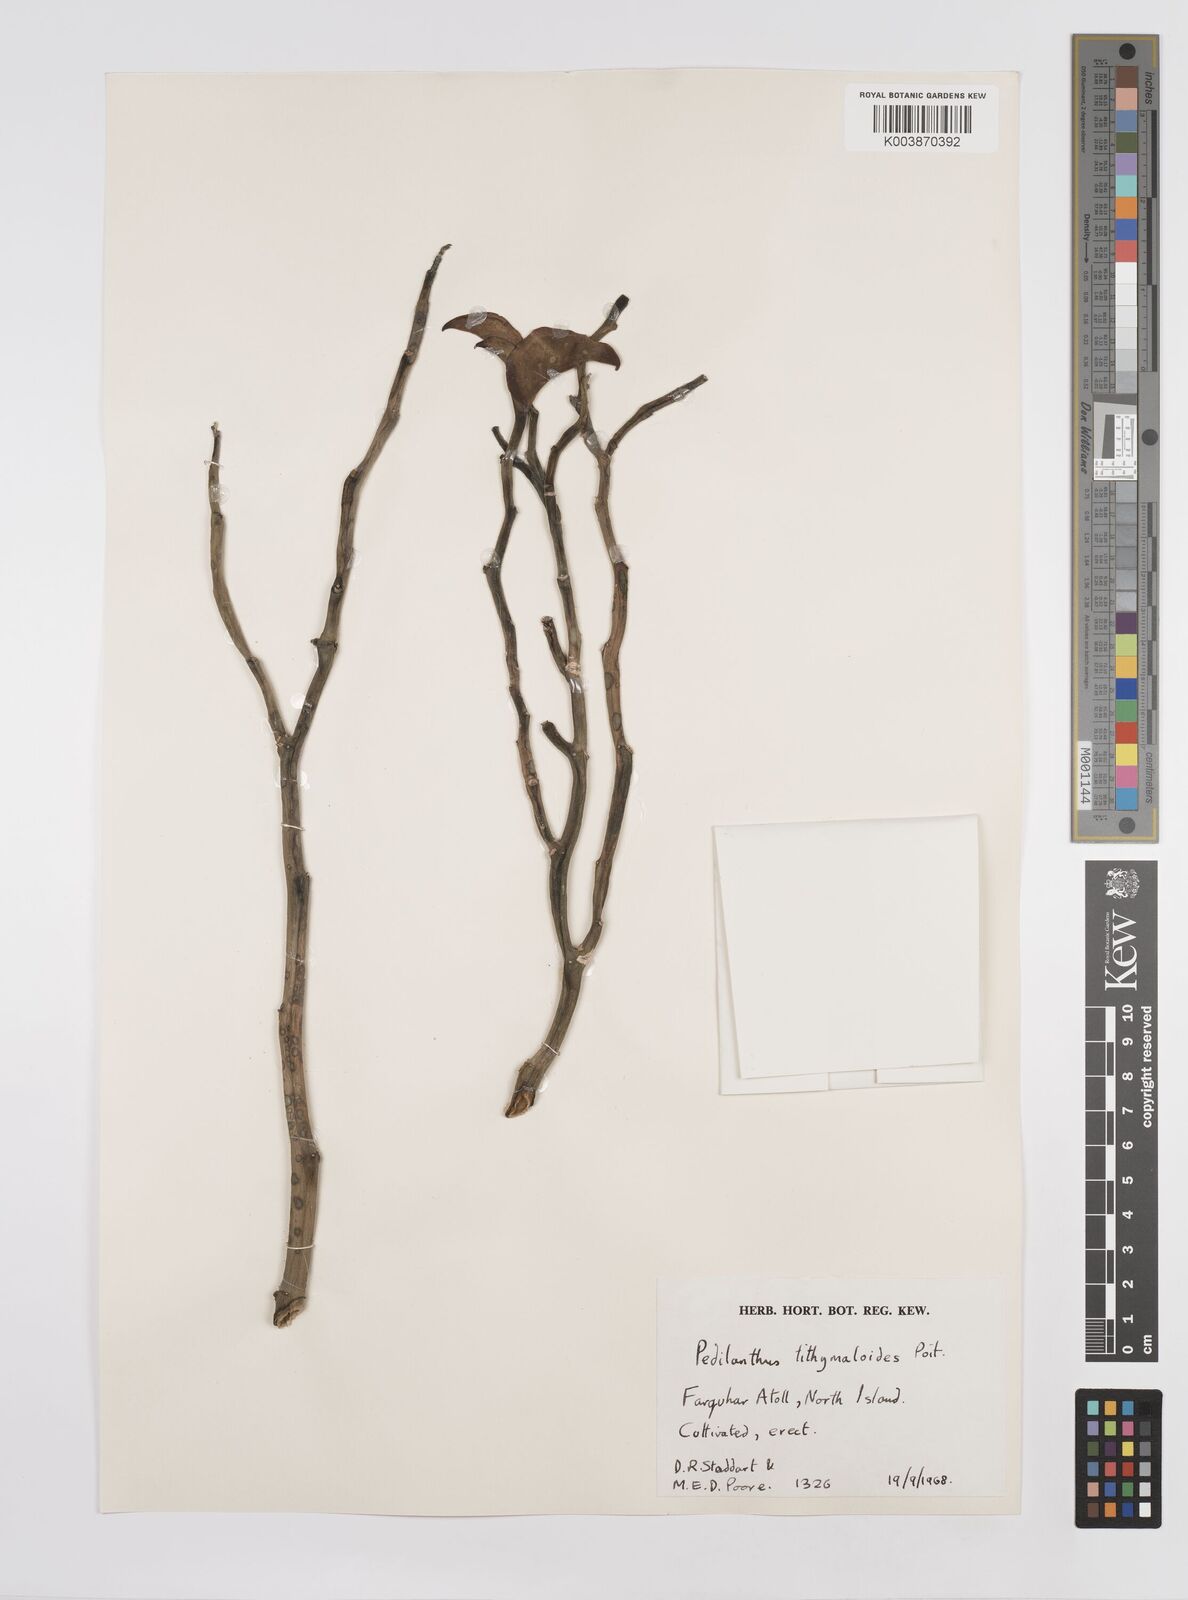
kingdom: Plantae
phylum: Tracheophyta
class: Magnoliopsida
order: Malpighiales
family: Euphorbiaceae
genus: Euphorbia
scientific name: Euphorbia tithymaloides
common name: Slipperplant
